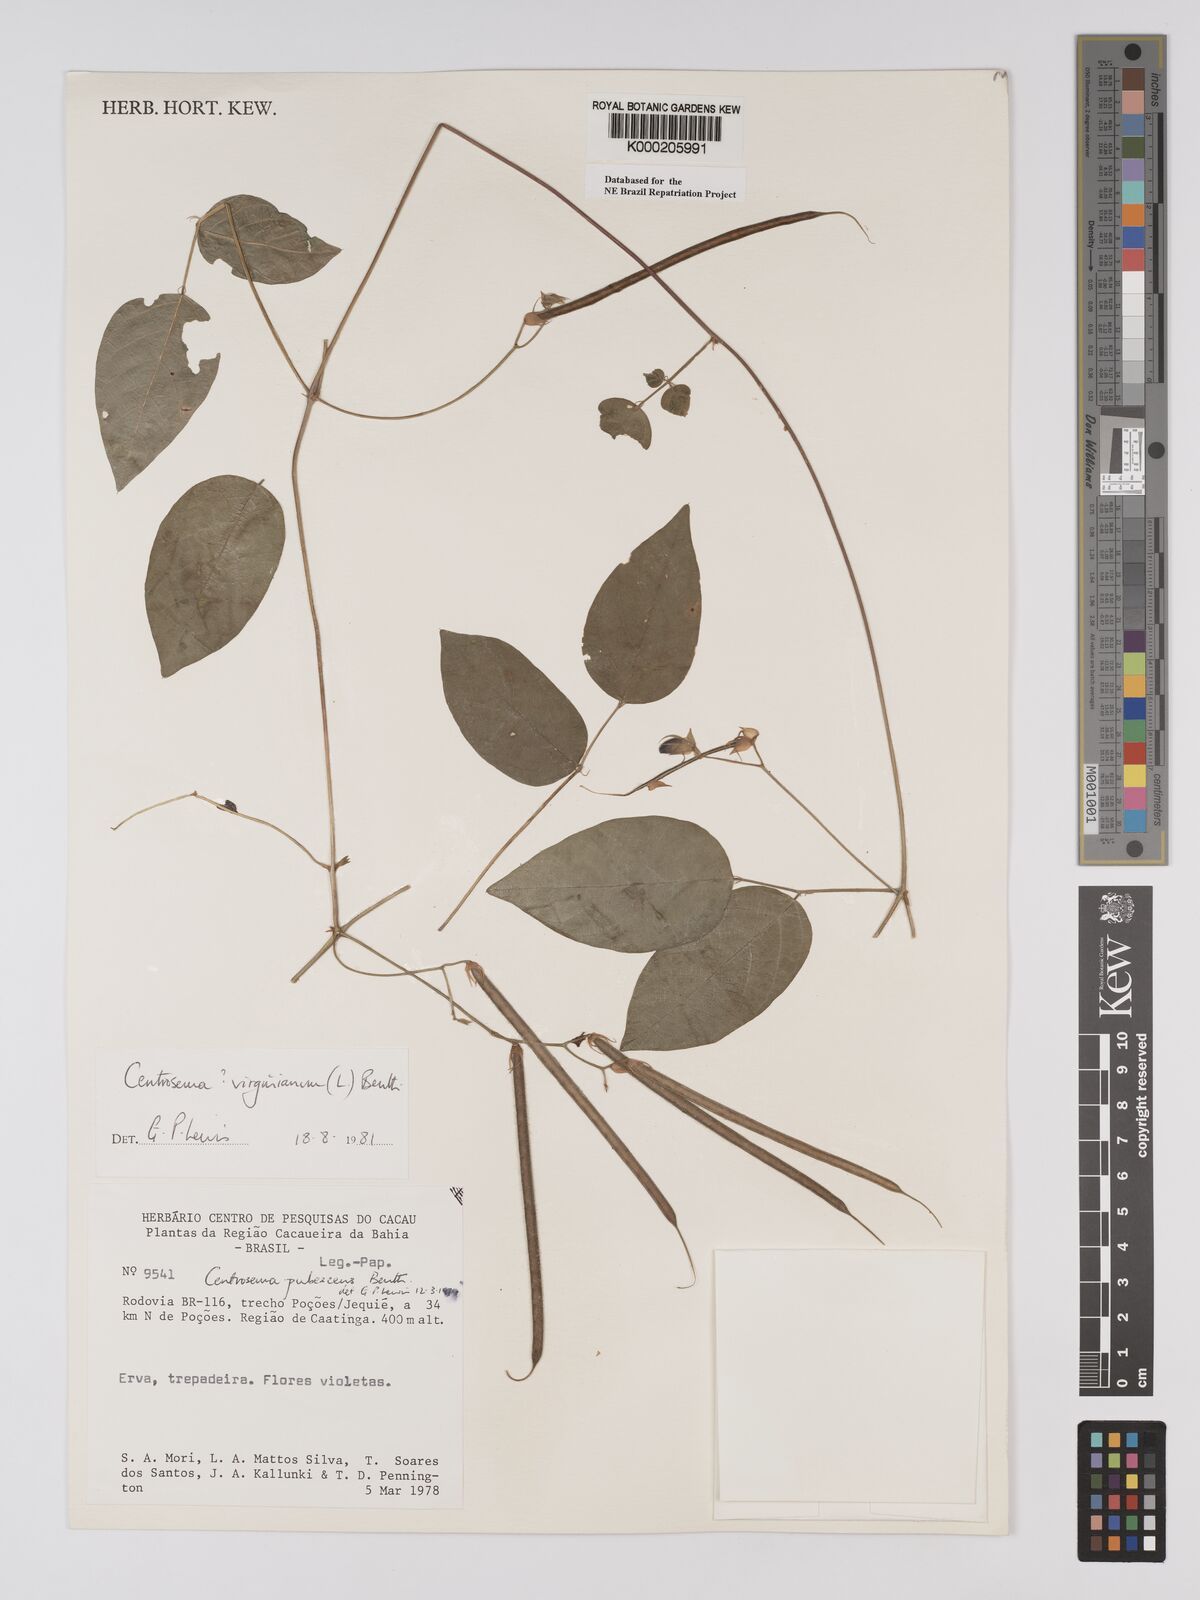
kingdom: Plantae
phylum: Tracheophyta
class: Magnoliopsida
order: Fabales
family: Fabaceae
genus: Centrosema
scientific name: Centrosema virginianum
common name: Butterfly-pea
